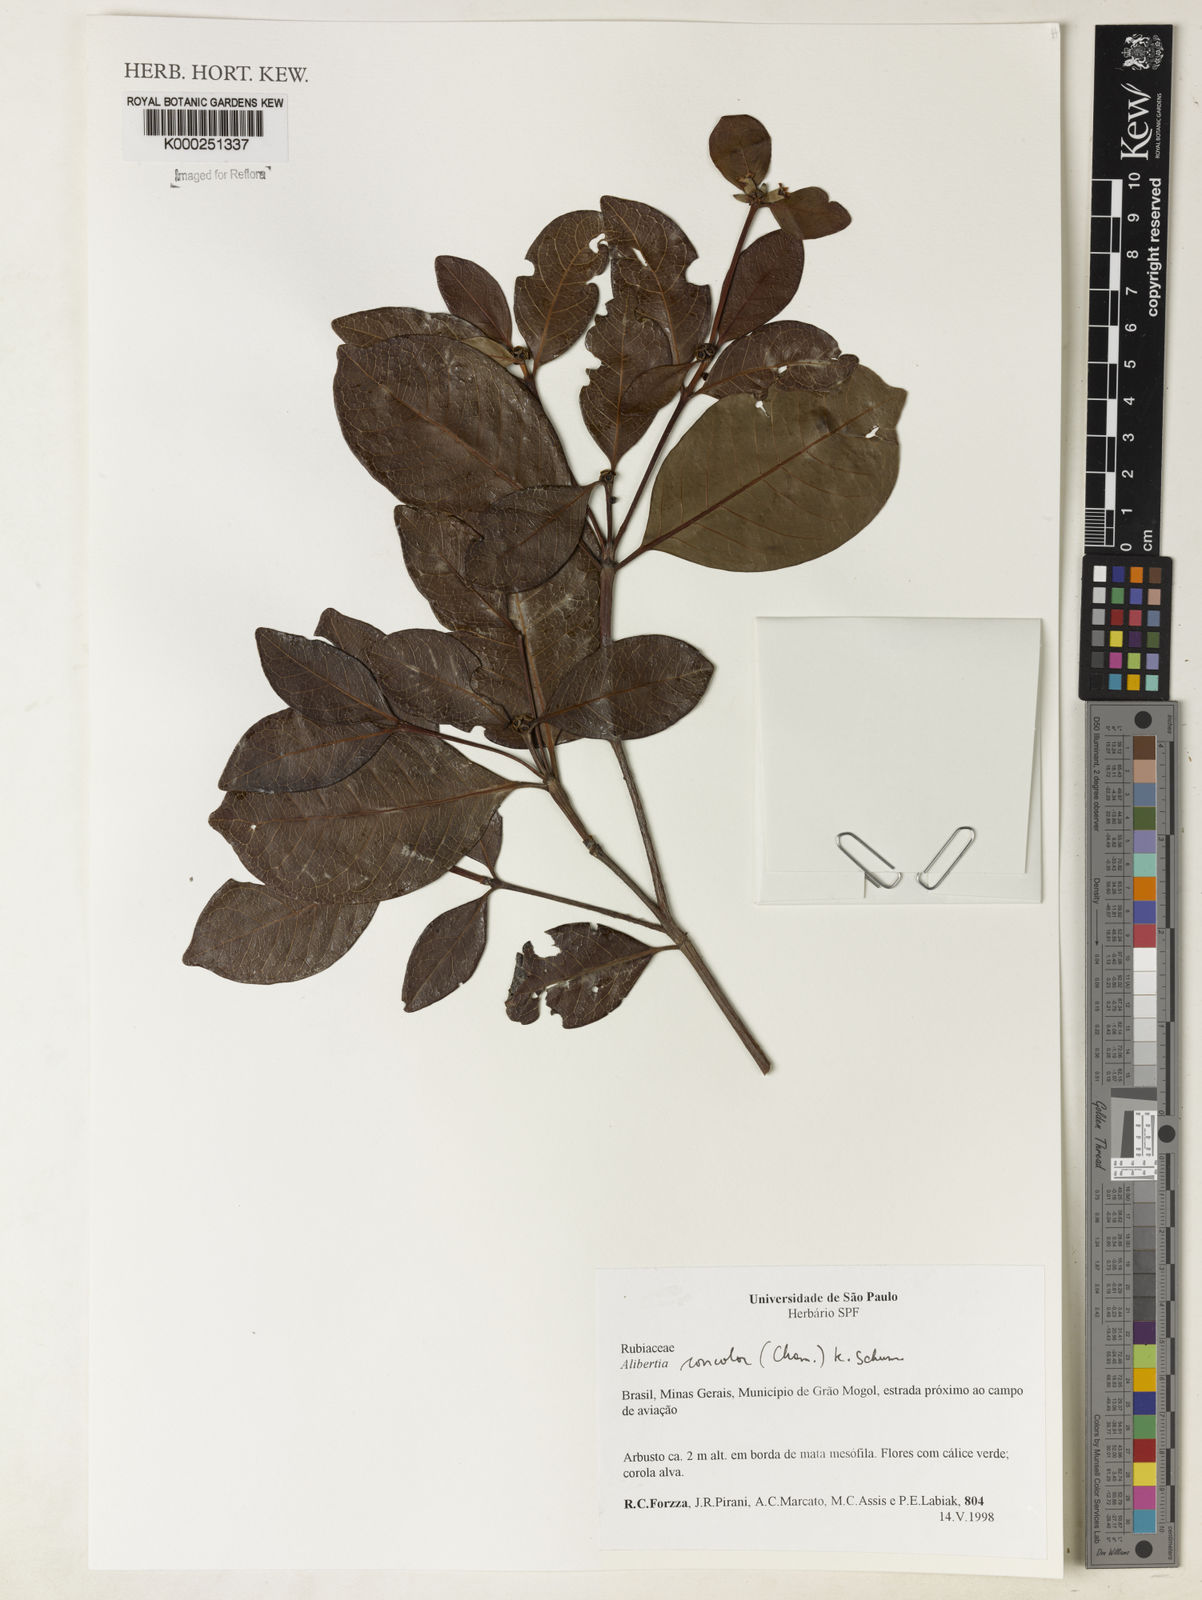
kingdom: Plantae
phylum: Tracheophyta
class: Magnoliopsida
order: Gentianales
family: Rubiaceae
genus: Cordiera
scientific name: Cordiera concolor
